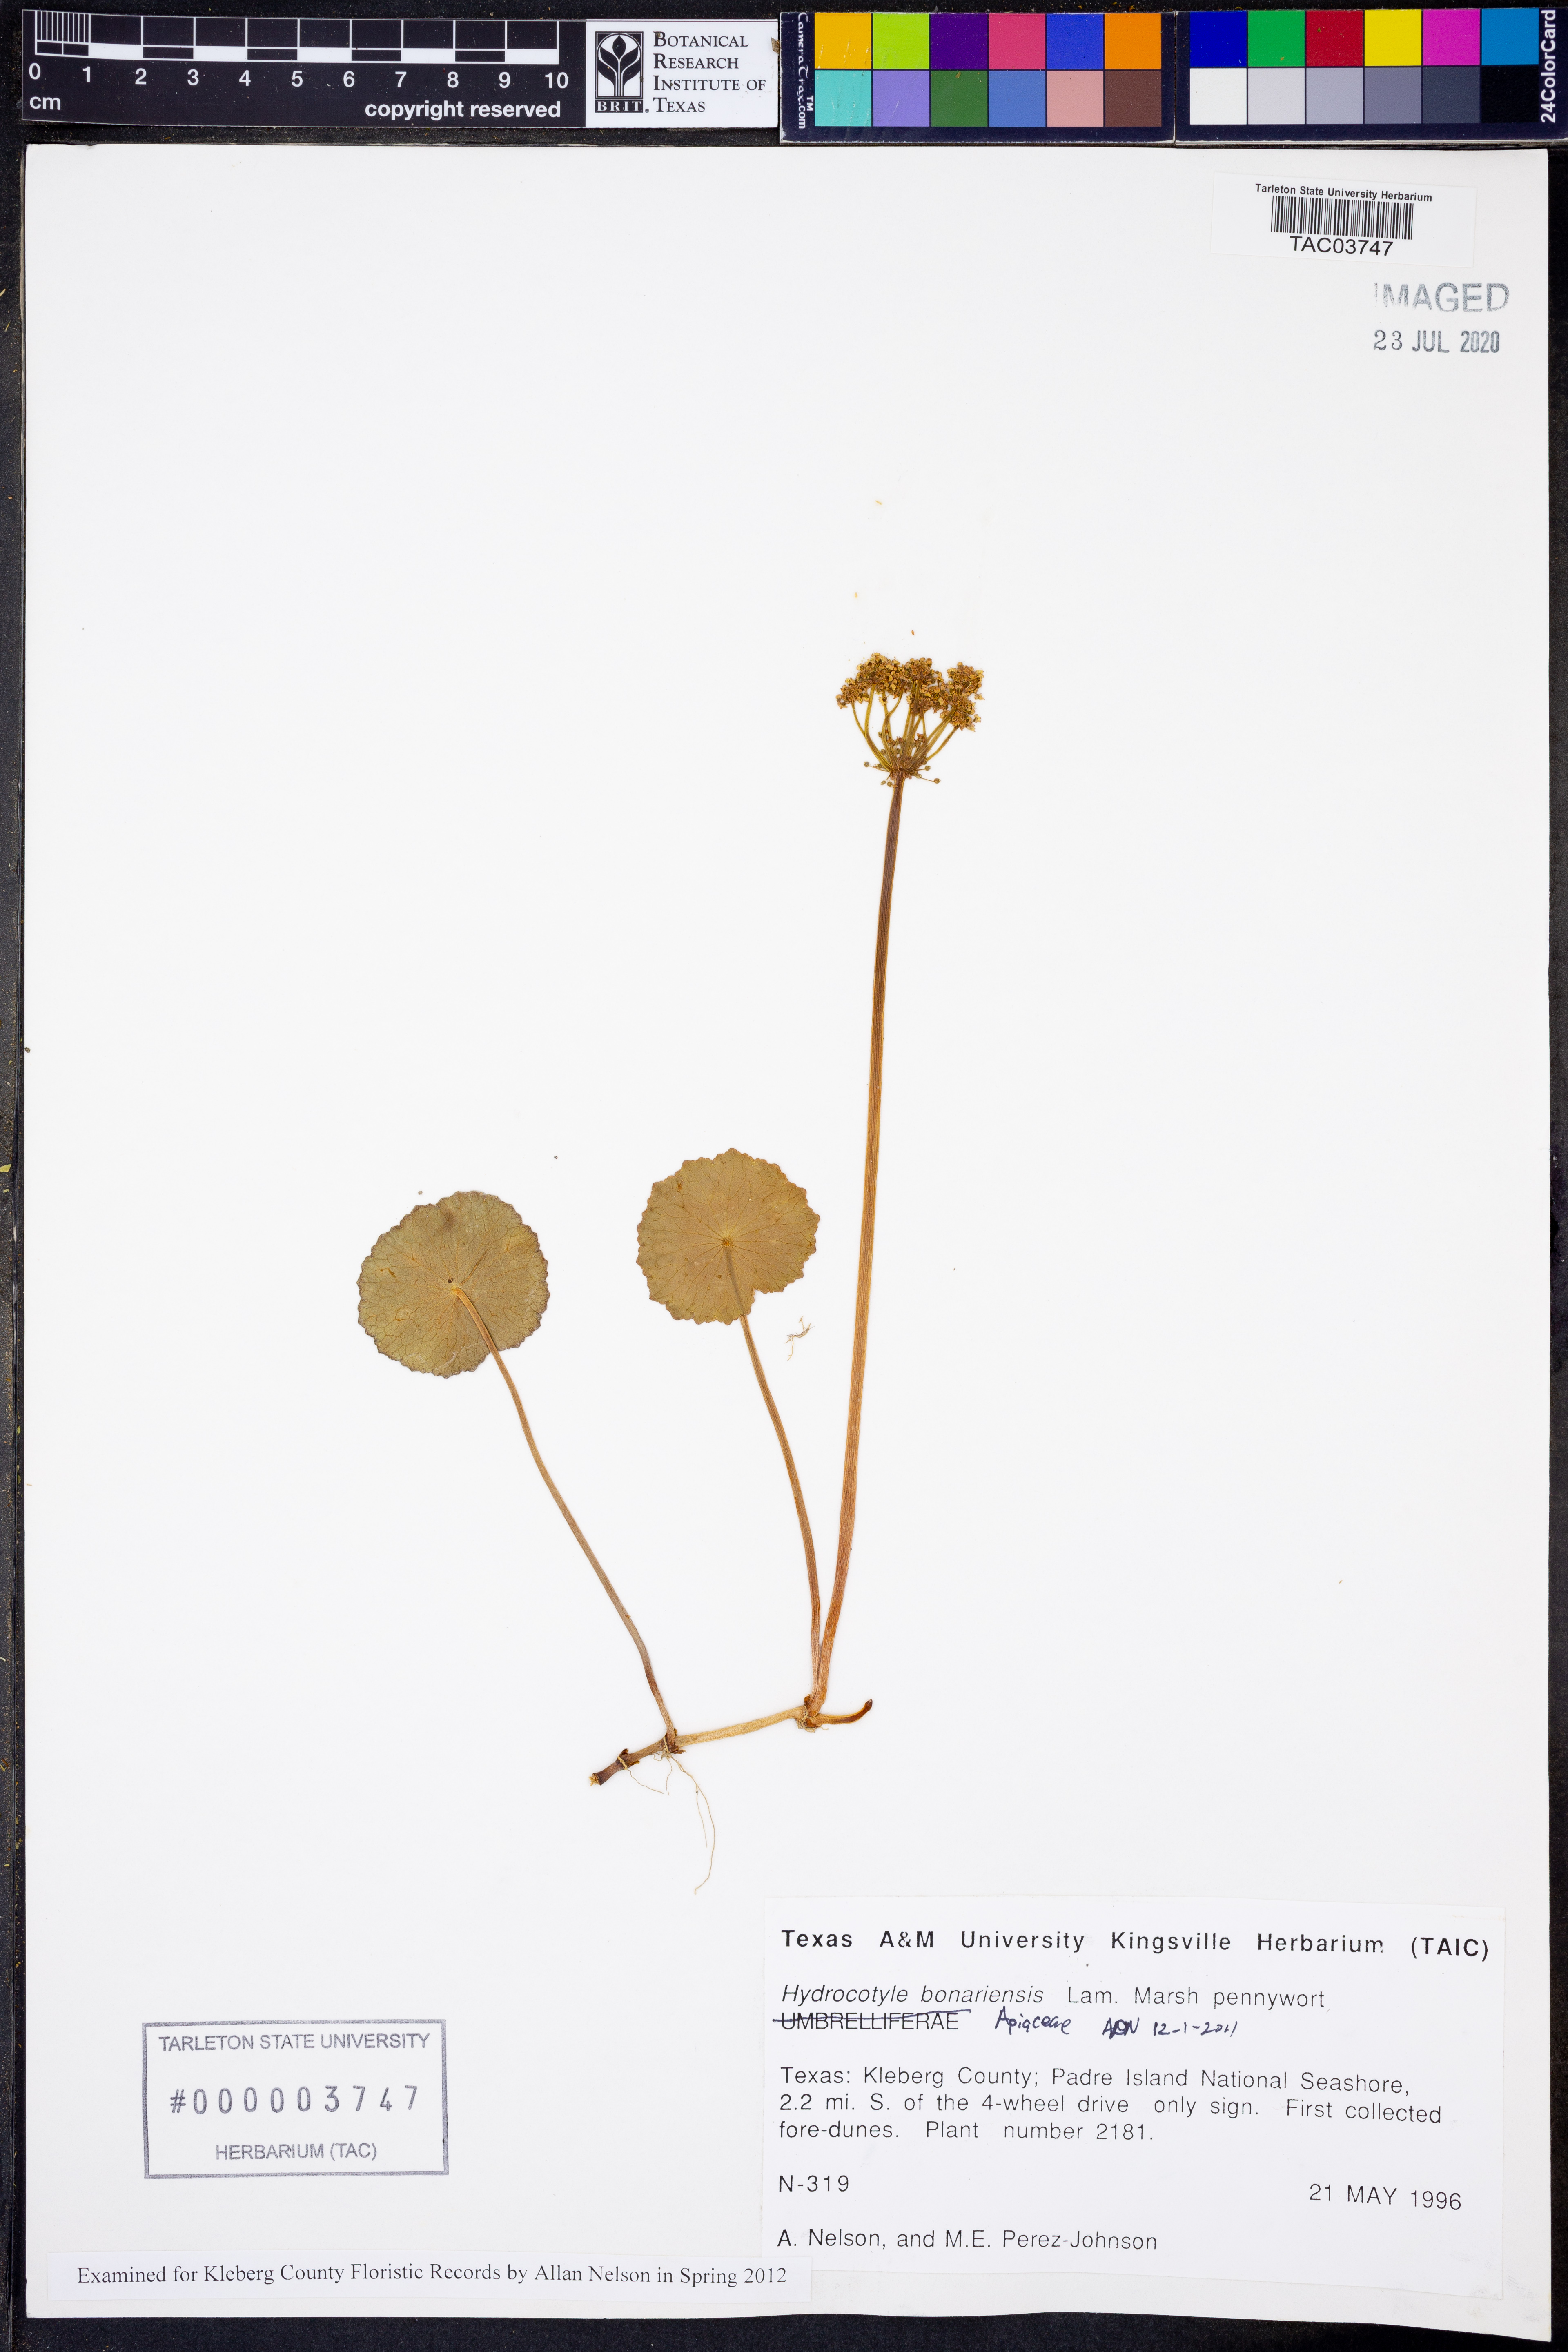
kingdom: Plantae
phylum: Tracheophyta
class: Magnoliopsida
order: Apiales
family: Araliaceae
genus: Hydrocotyle
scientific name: Hydrocotyle bonariensis
